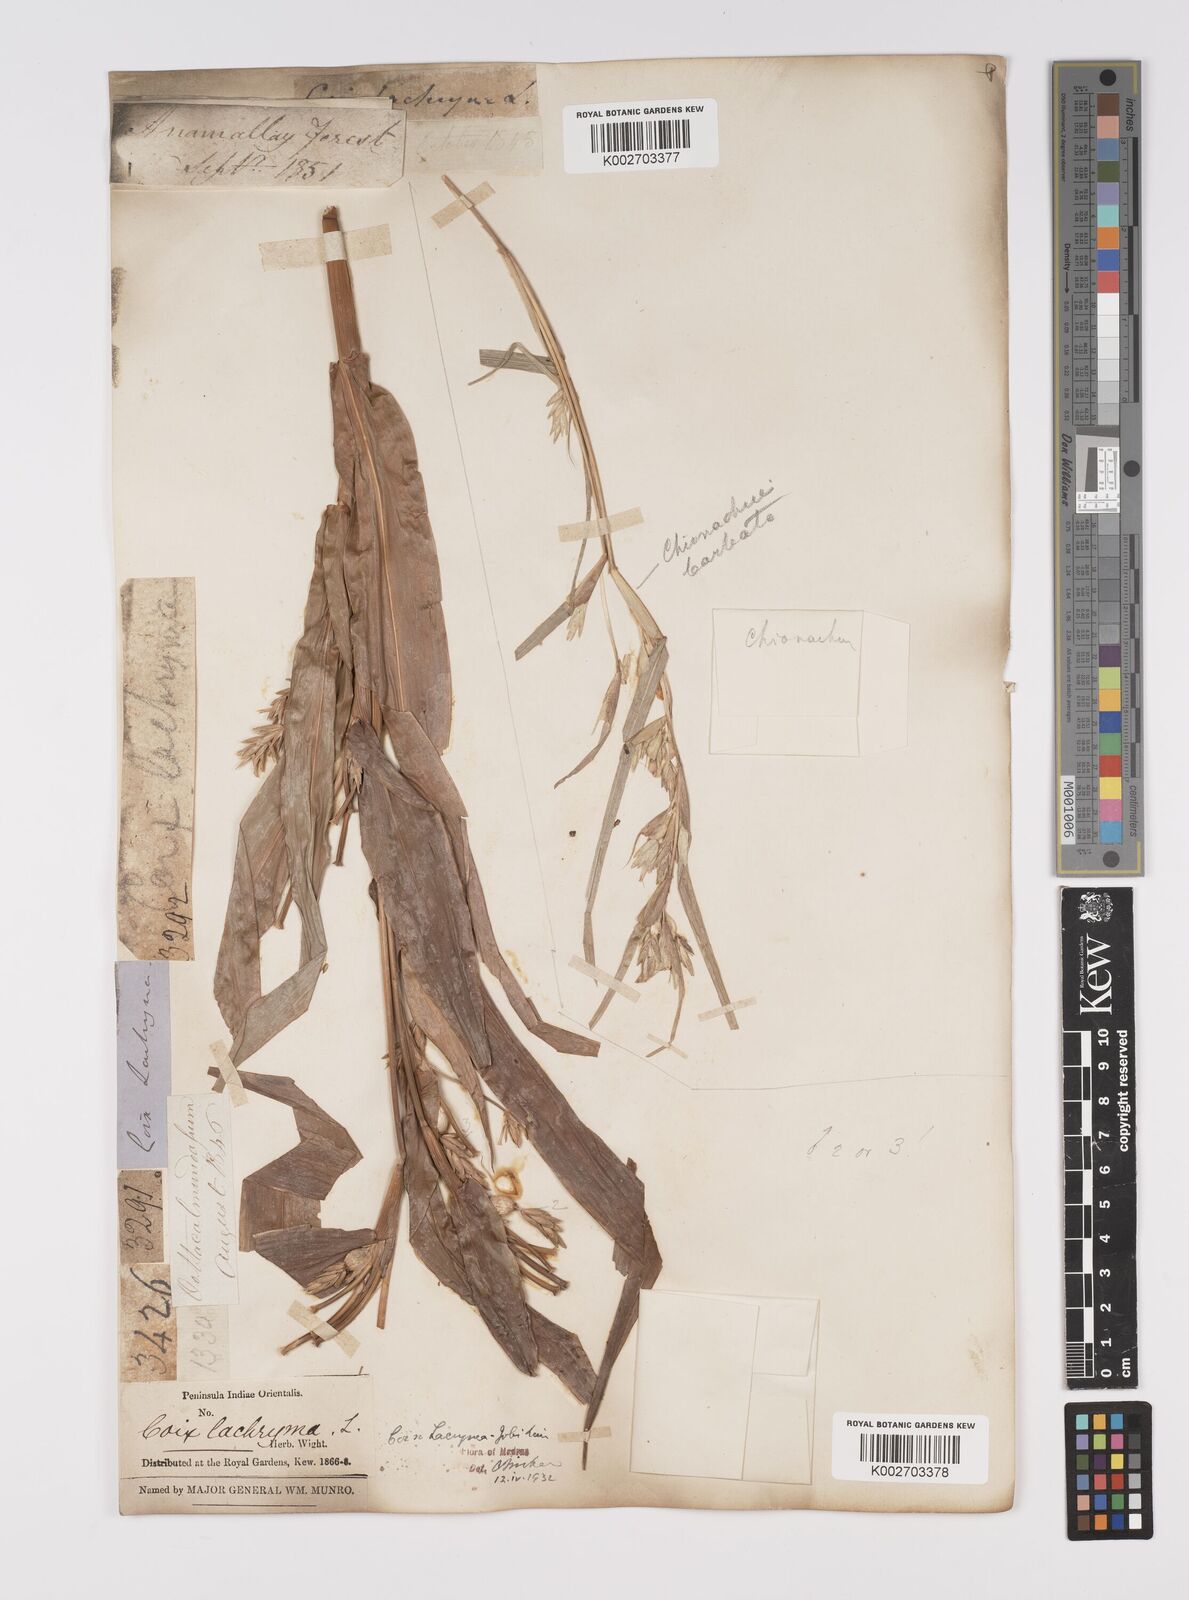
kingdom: Plantae
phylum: Tracheophyta
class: Liliopsida
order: Poales
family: Poaceae
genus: Coix
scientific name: Coix lacryma-jobi
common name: Job's tears
